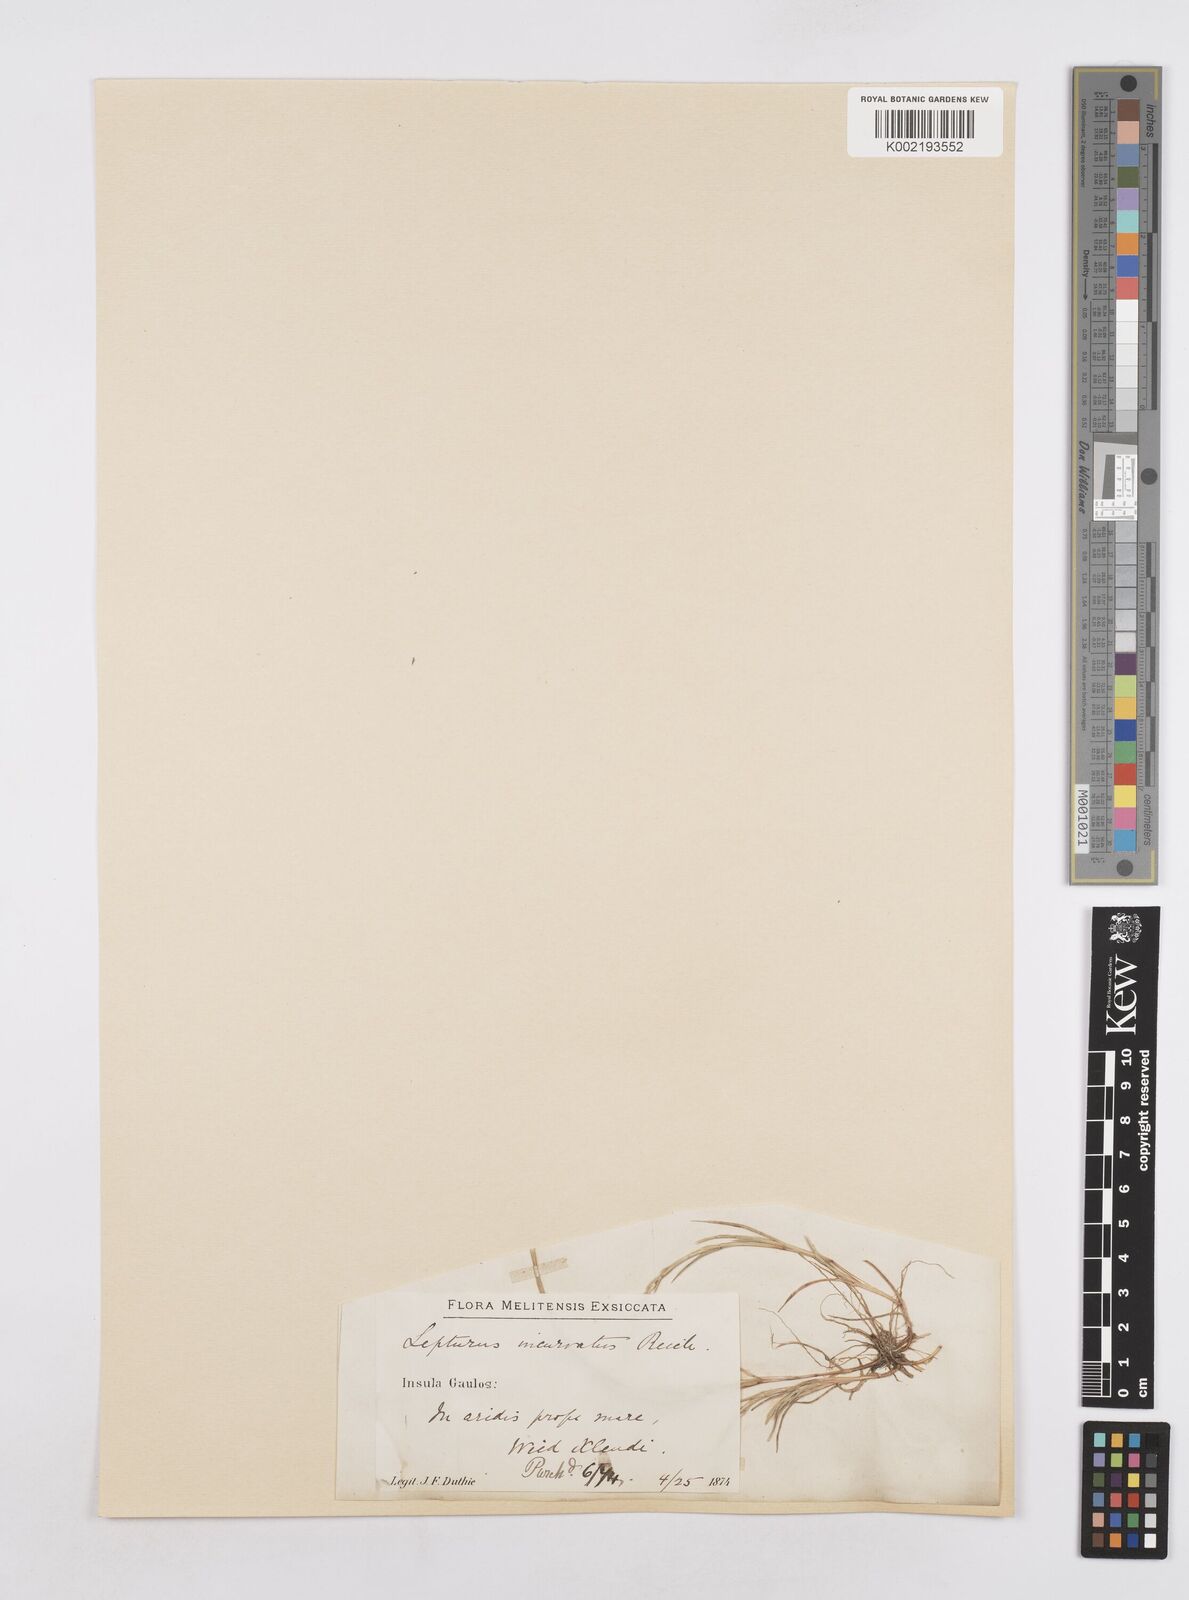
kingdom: Plantae
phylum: Tracheophyta
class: Liliopsida
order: Poales
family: Poaceae
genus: Parapholis
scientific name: Parapholis incurva
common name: Curved sicklegrass
